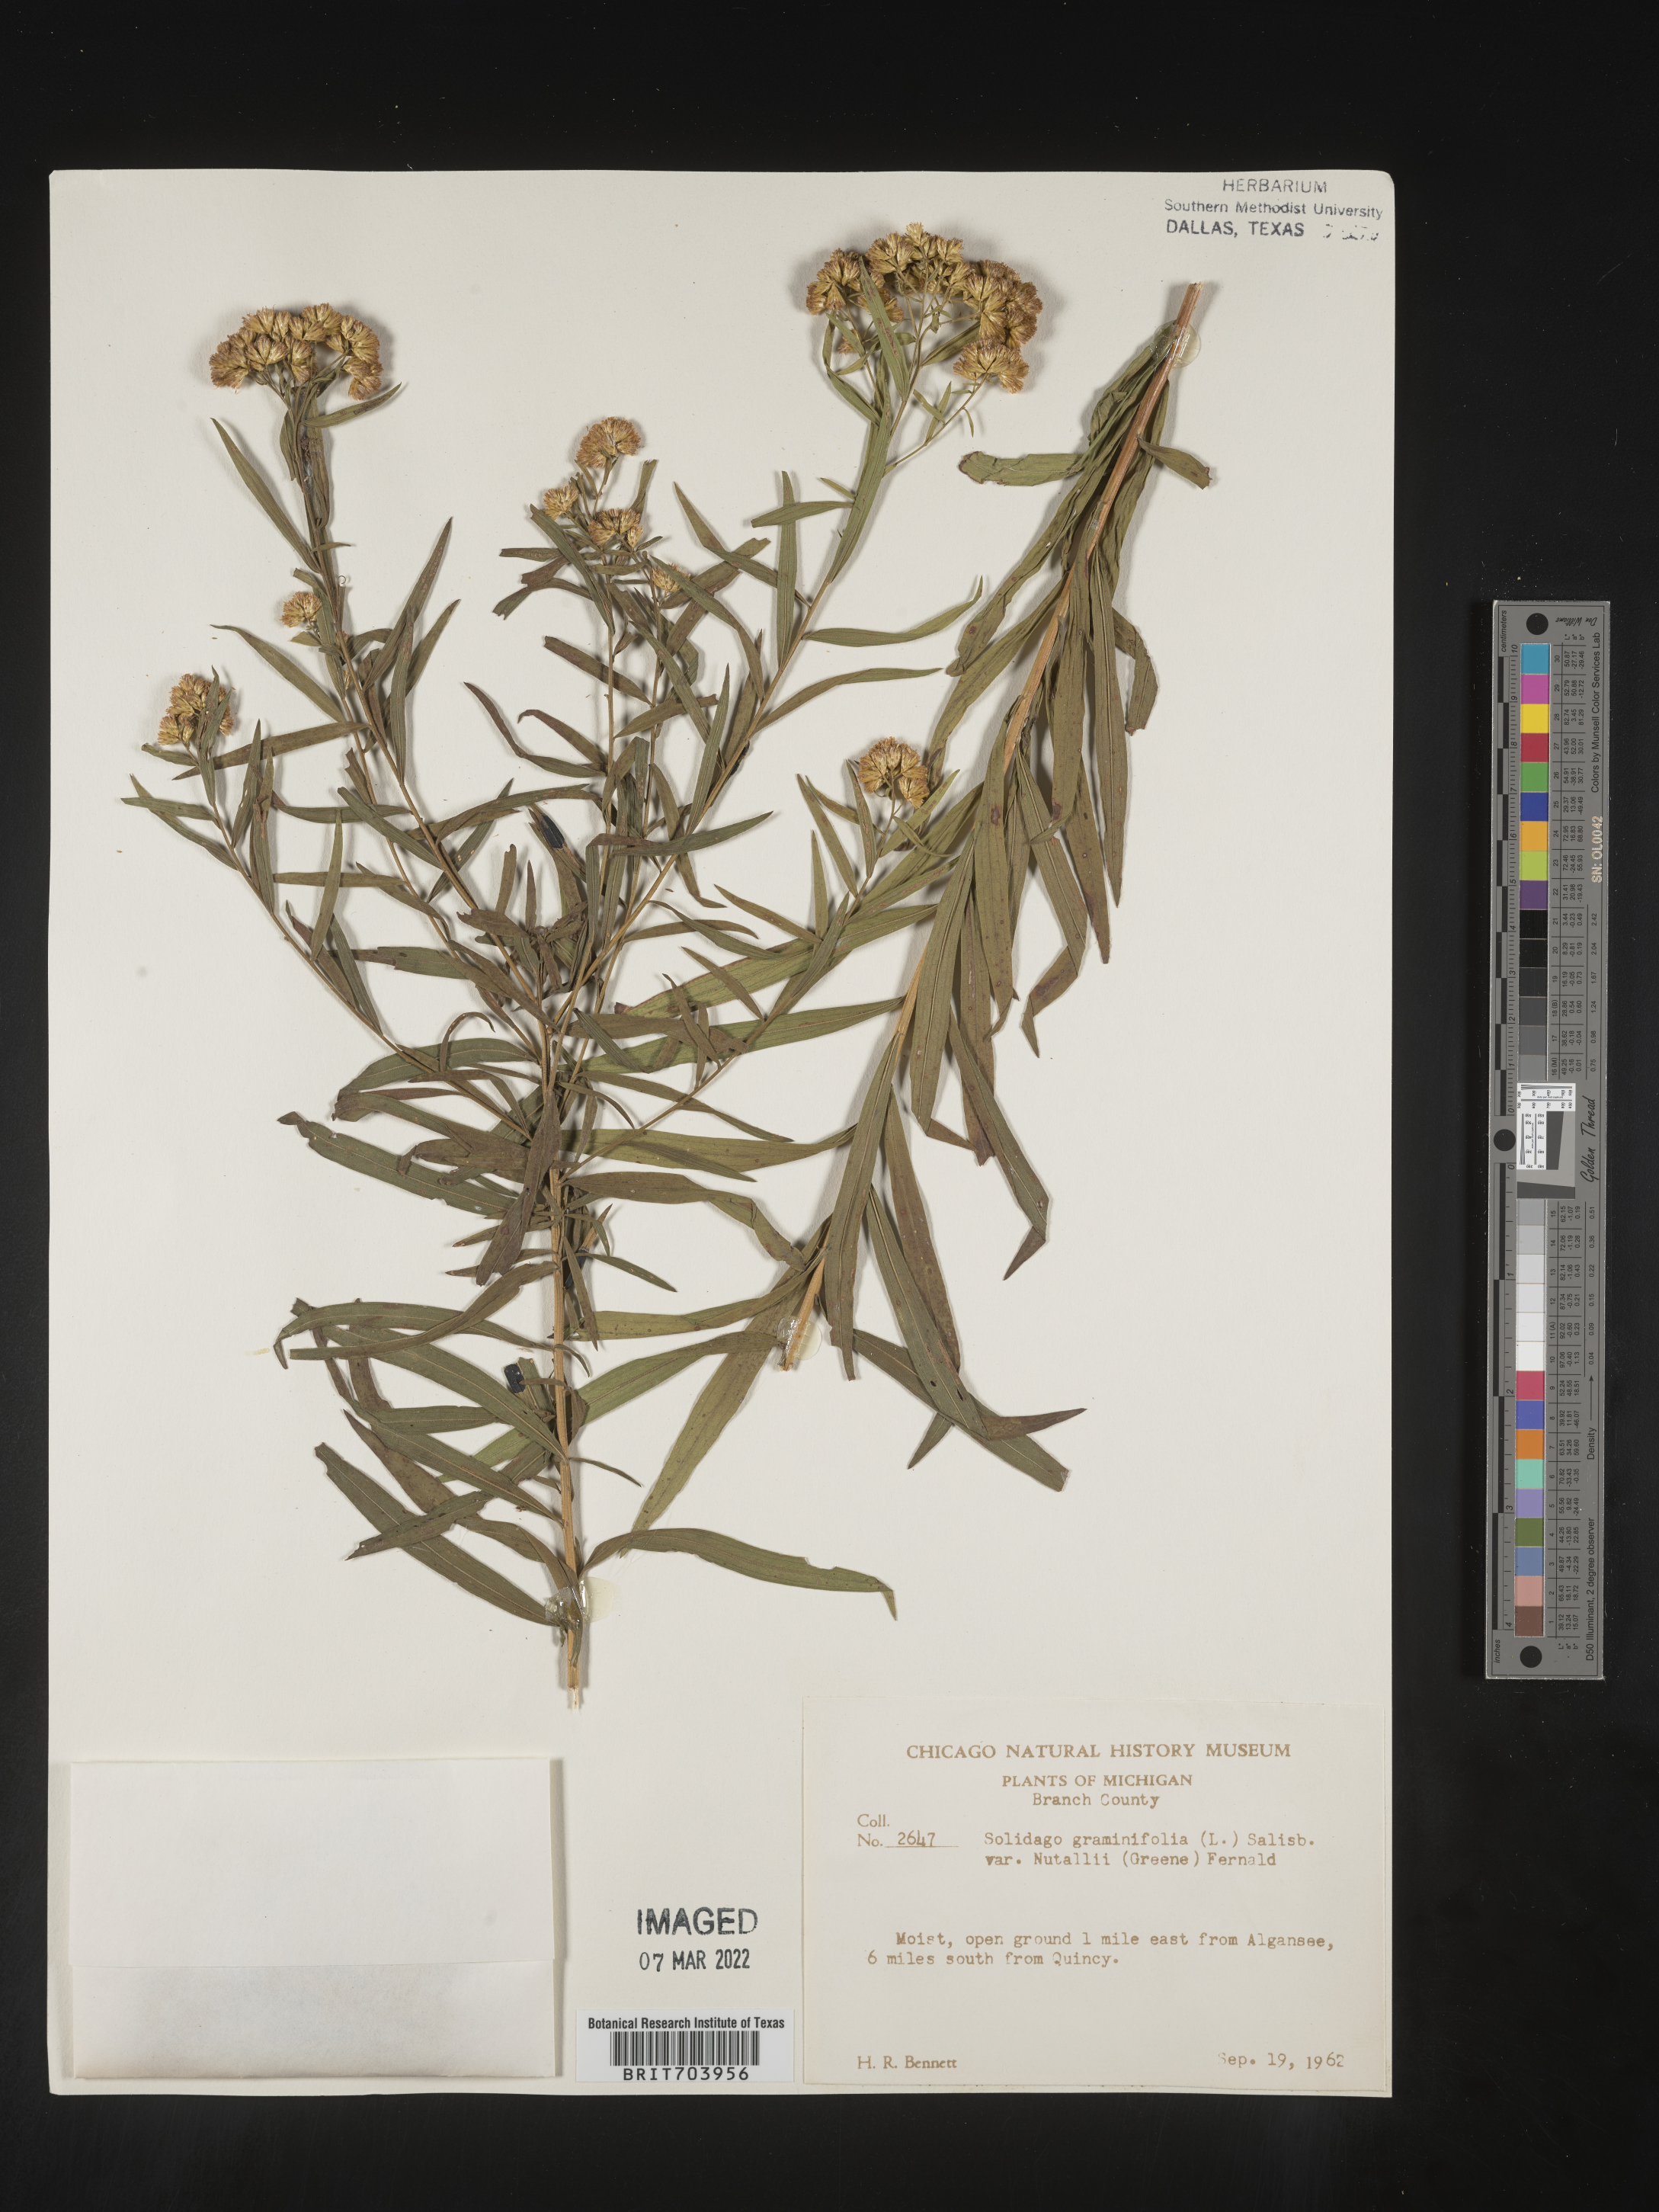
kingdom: Plantae
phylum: Tracheophyta
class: Magnoliopsida
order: Asterales
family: Asteraceae
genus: Euthamia
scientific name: Euthamia graminifolia
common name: Common goldentop
